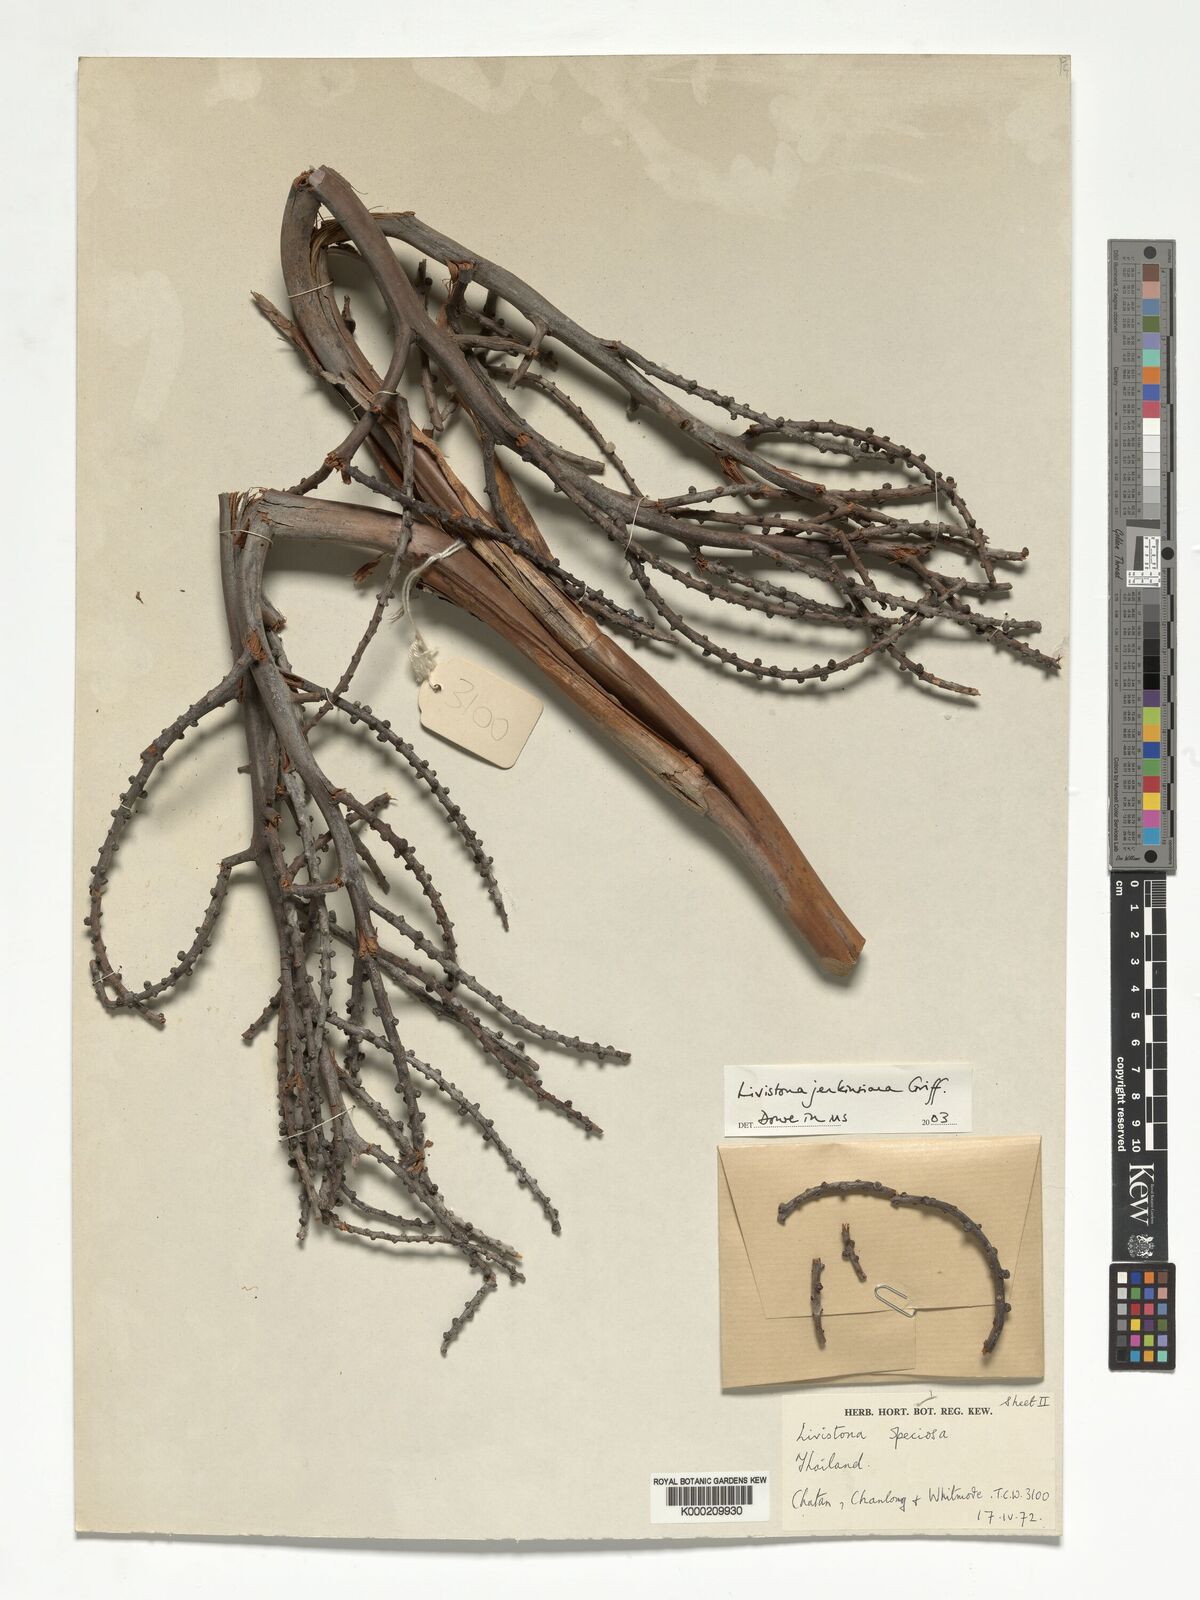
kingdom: Plantae
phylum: Tracheophyta
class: Liliopsida
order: Arecales
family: Arecaceae
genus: Livistona
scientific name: Livistona jenkinsiana
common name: Himalayan fan palm
